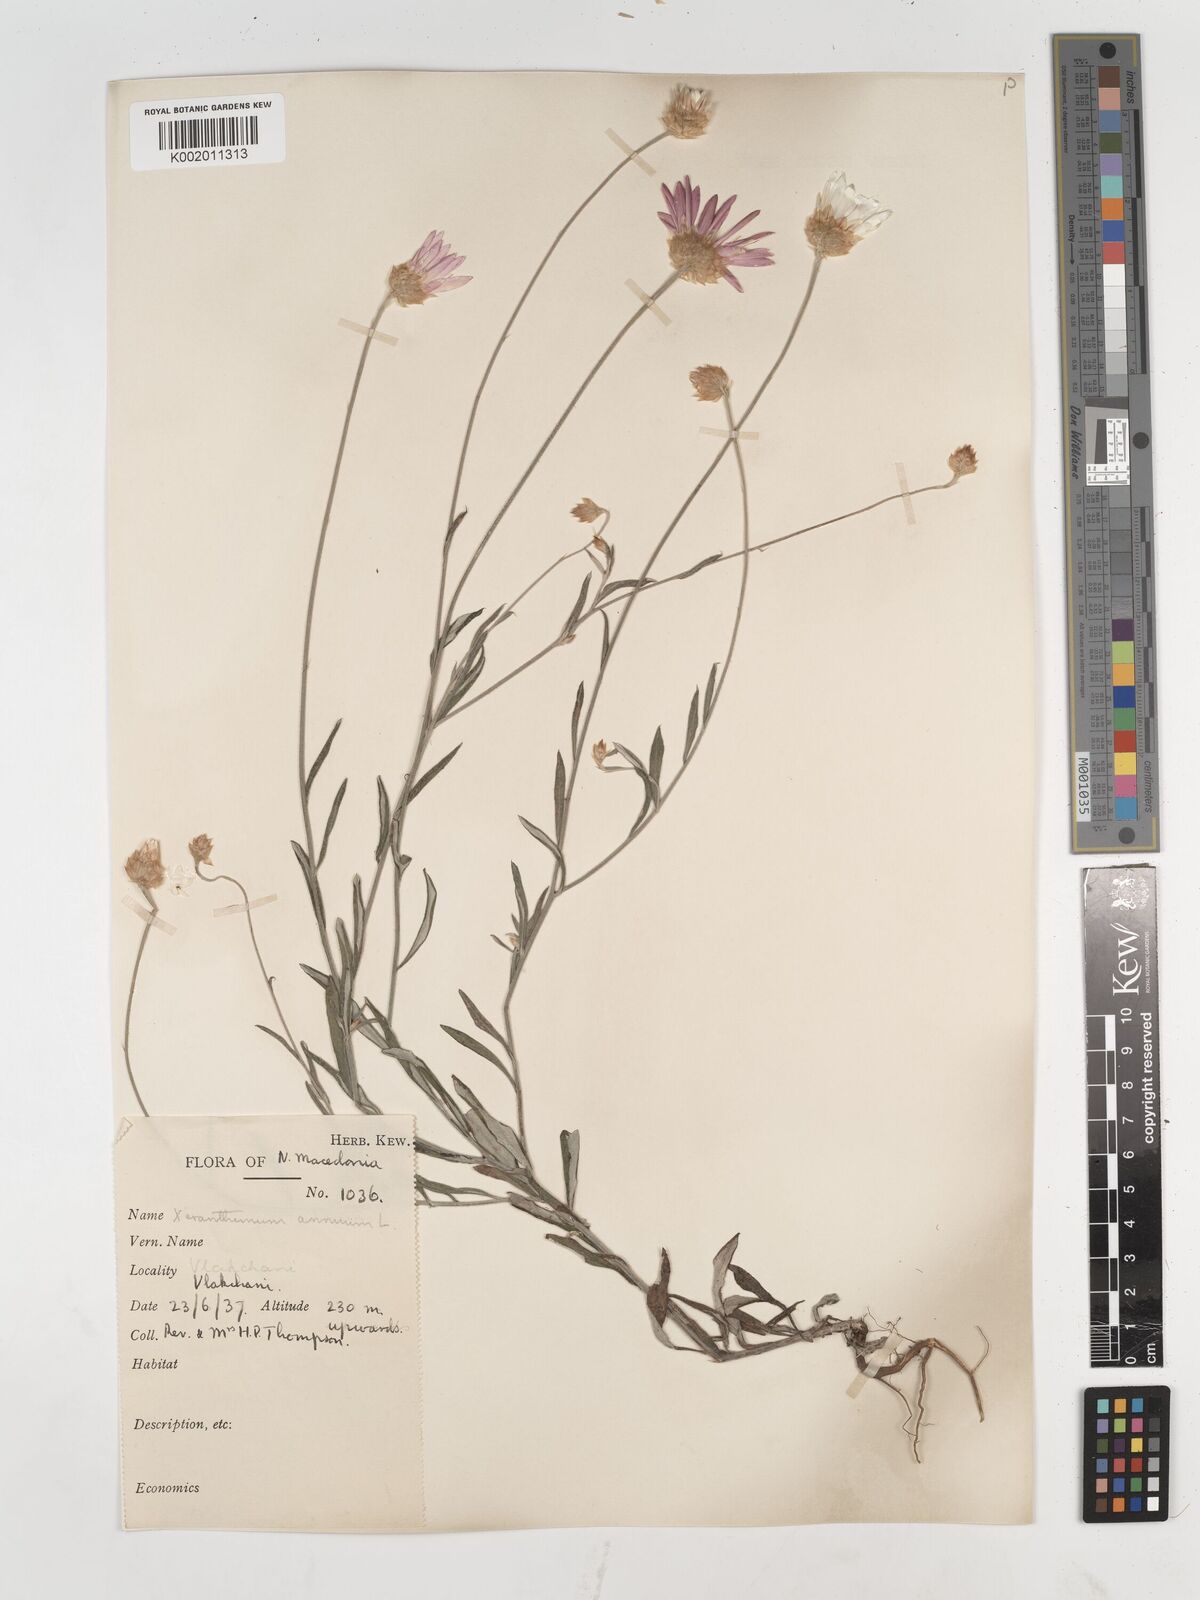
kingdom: Plantae
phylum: Tracheophyta
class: Magnoliopsida
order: Asterales
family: Asteraceae
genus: Xeranthemum
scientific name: Xeranthemum annuum
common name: Immortelle
